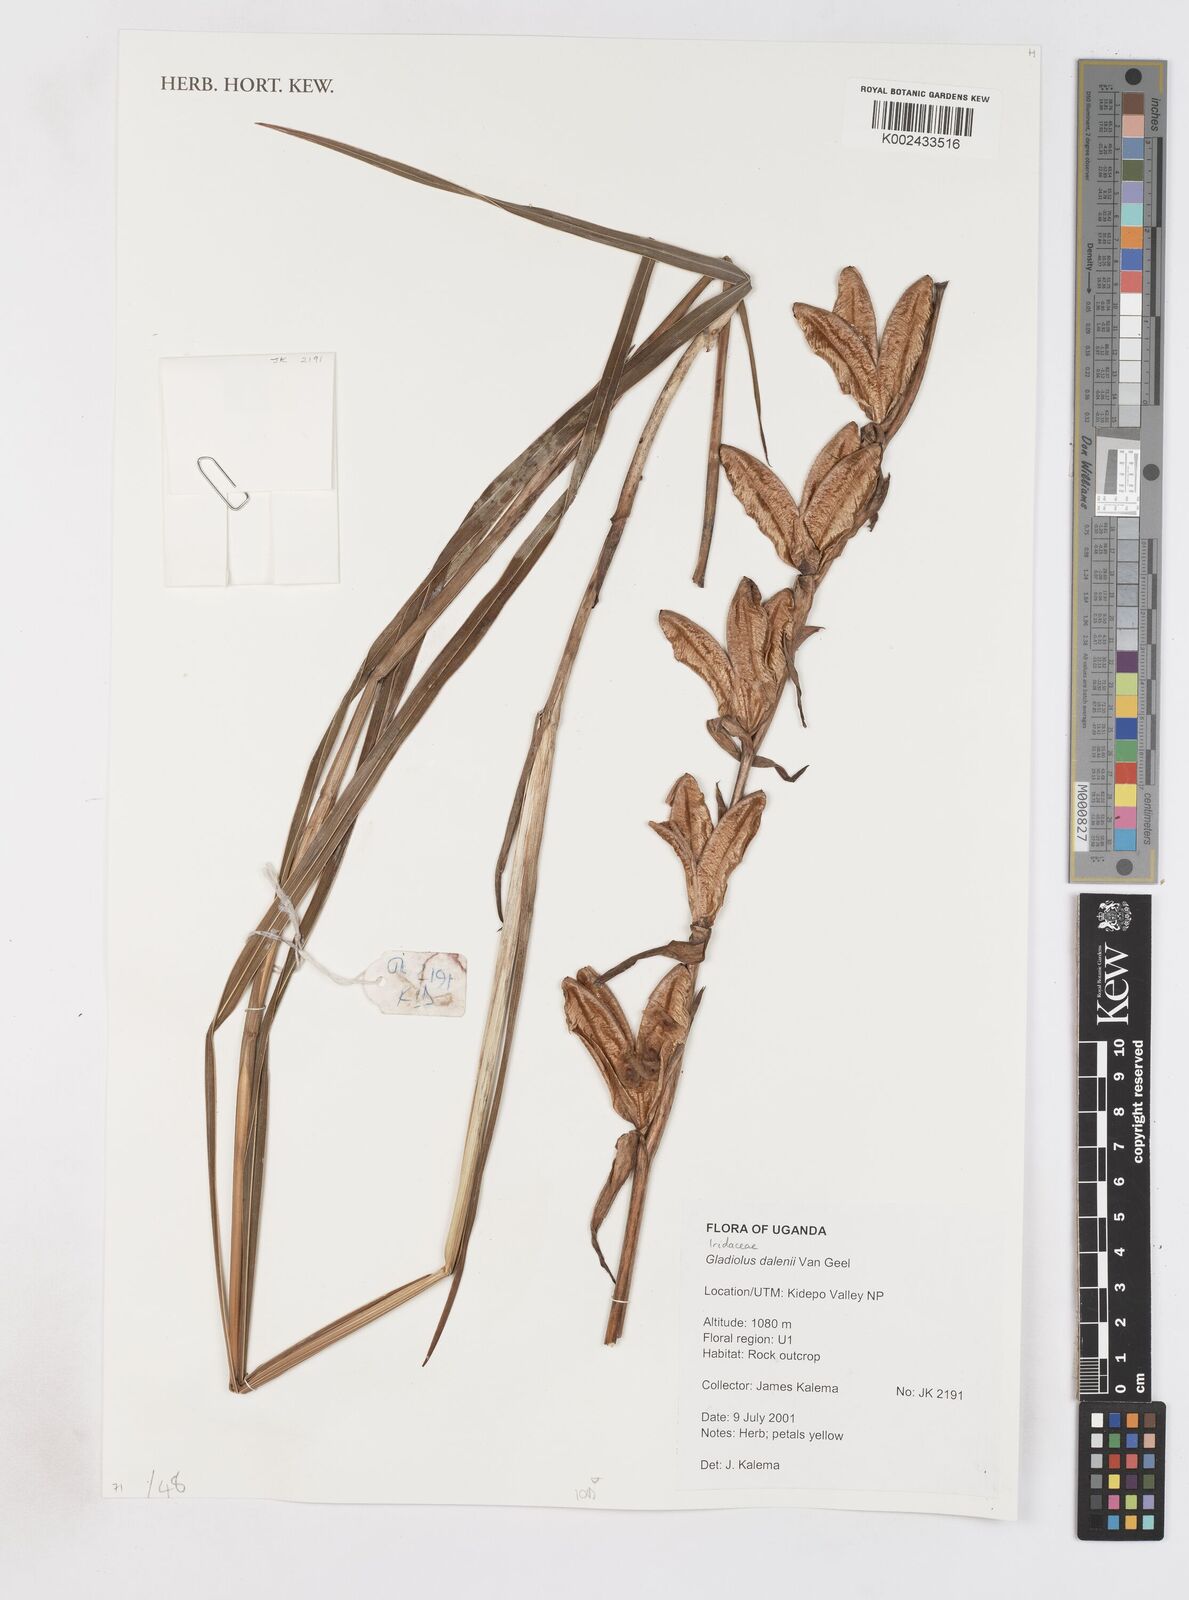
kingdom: Plantae
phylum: Tracheophyta
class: Liliopsida
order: Asparagales
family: Iridaceae
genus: Gladiolus
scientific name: Gladiolus dalenii
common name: Cornflag
